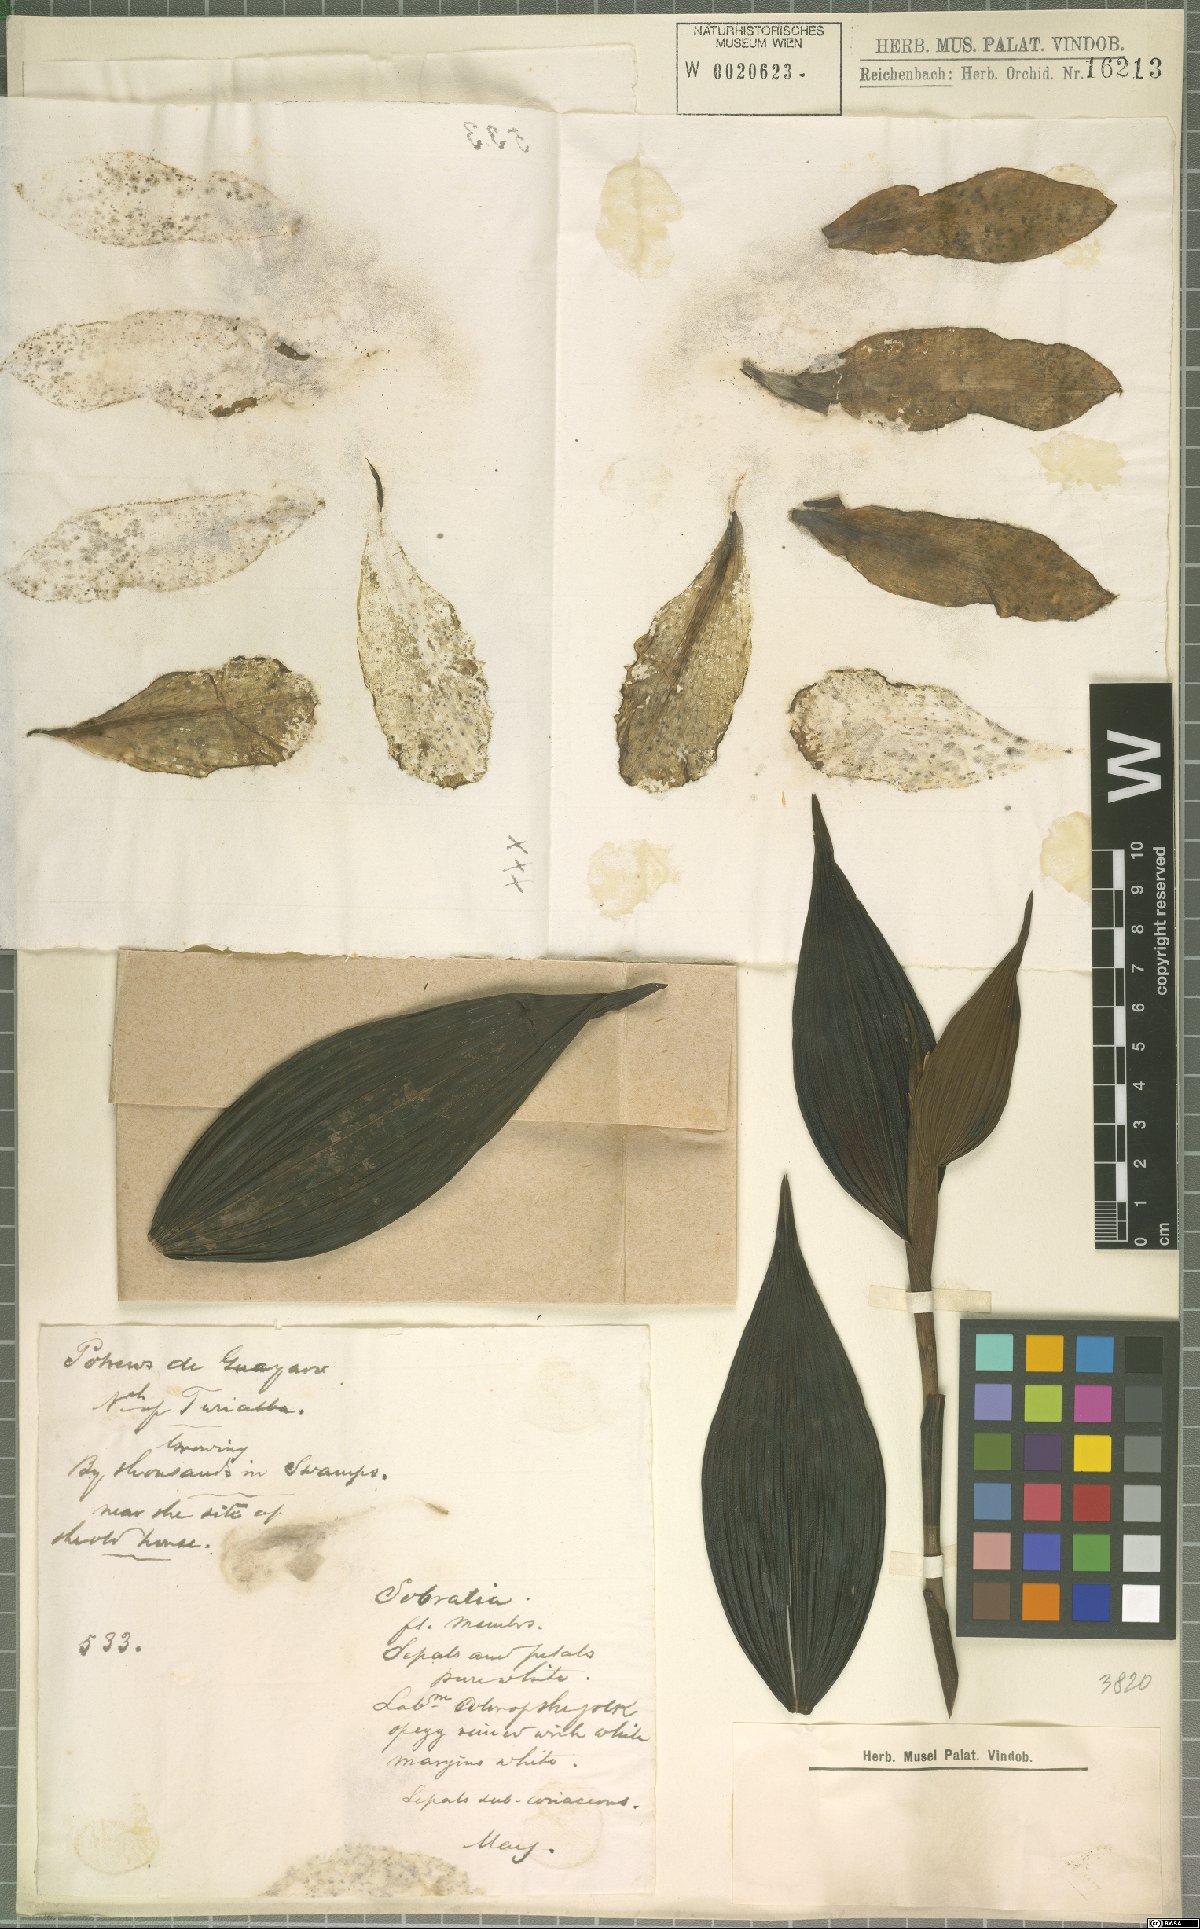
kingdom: Plantae
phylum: Tracheophyta
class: Liliopsida
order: Asparagales
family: Orchidaceae
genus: Sobralia
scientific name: Sobralia
